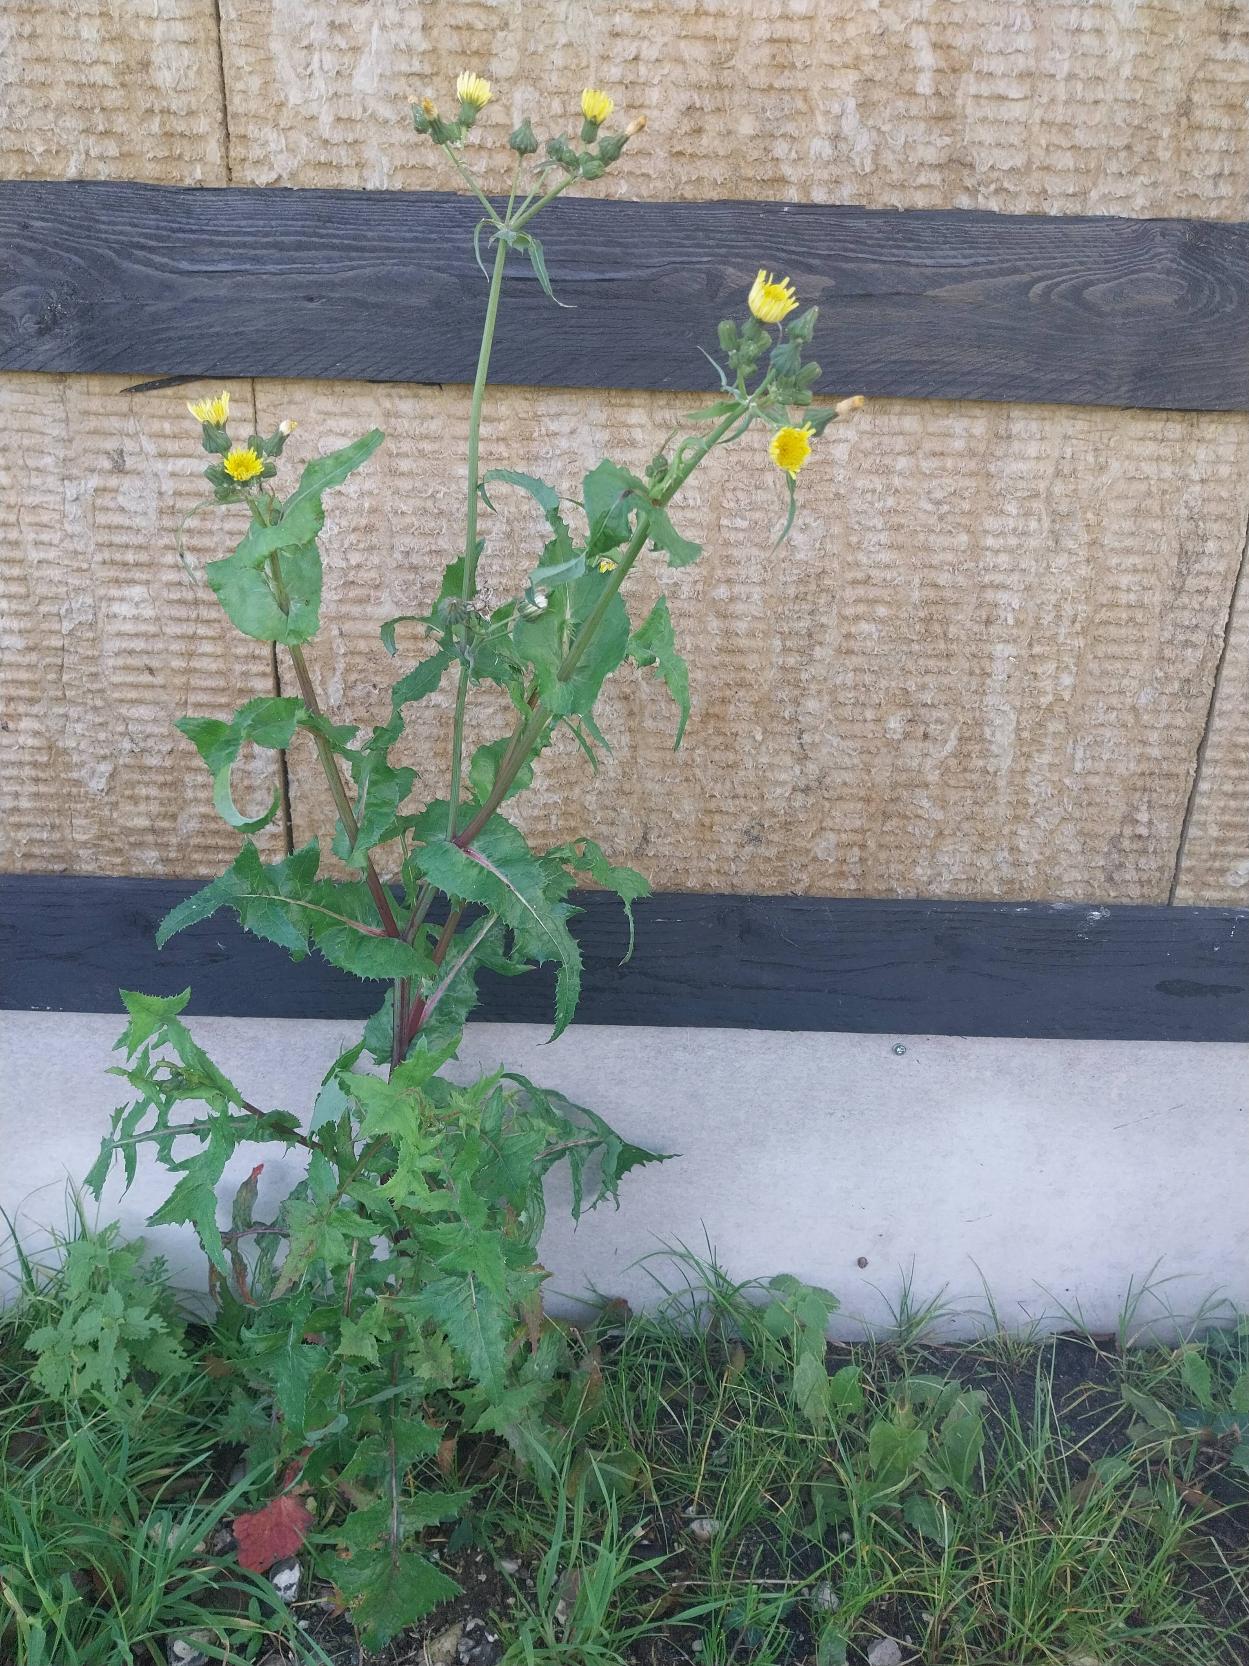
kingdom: Plantae
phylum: Tracheophyta
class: Magnoliopsida
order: Asterales
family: Asteraceae
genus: Sonchus
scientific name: Sonchus oleraceus
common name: Almindelig svinemælk
